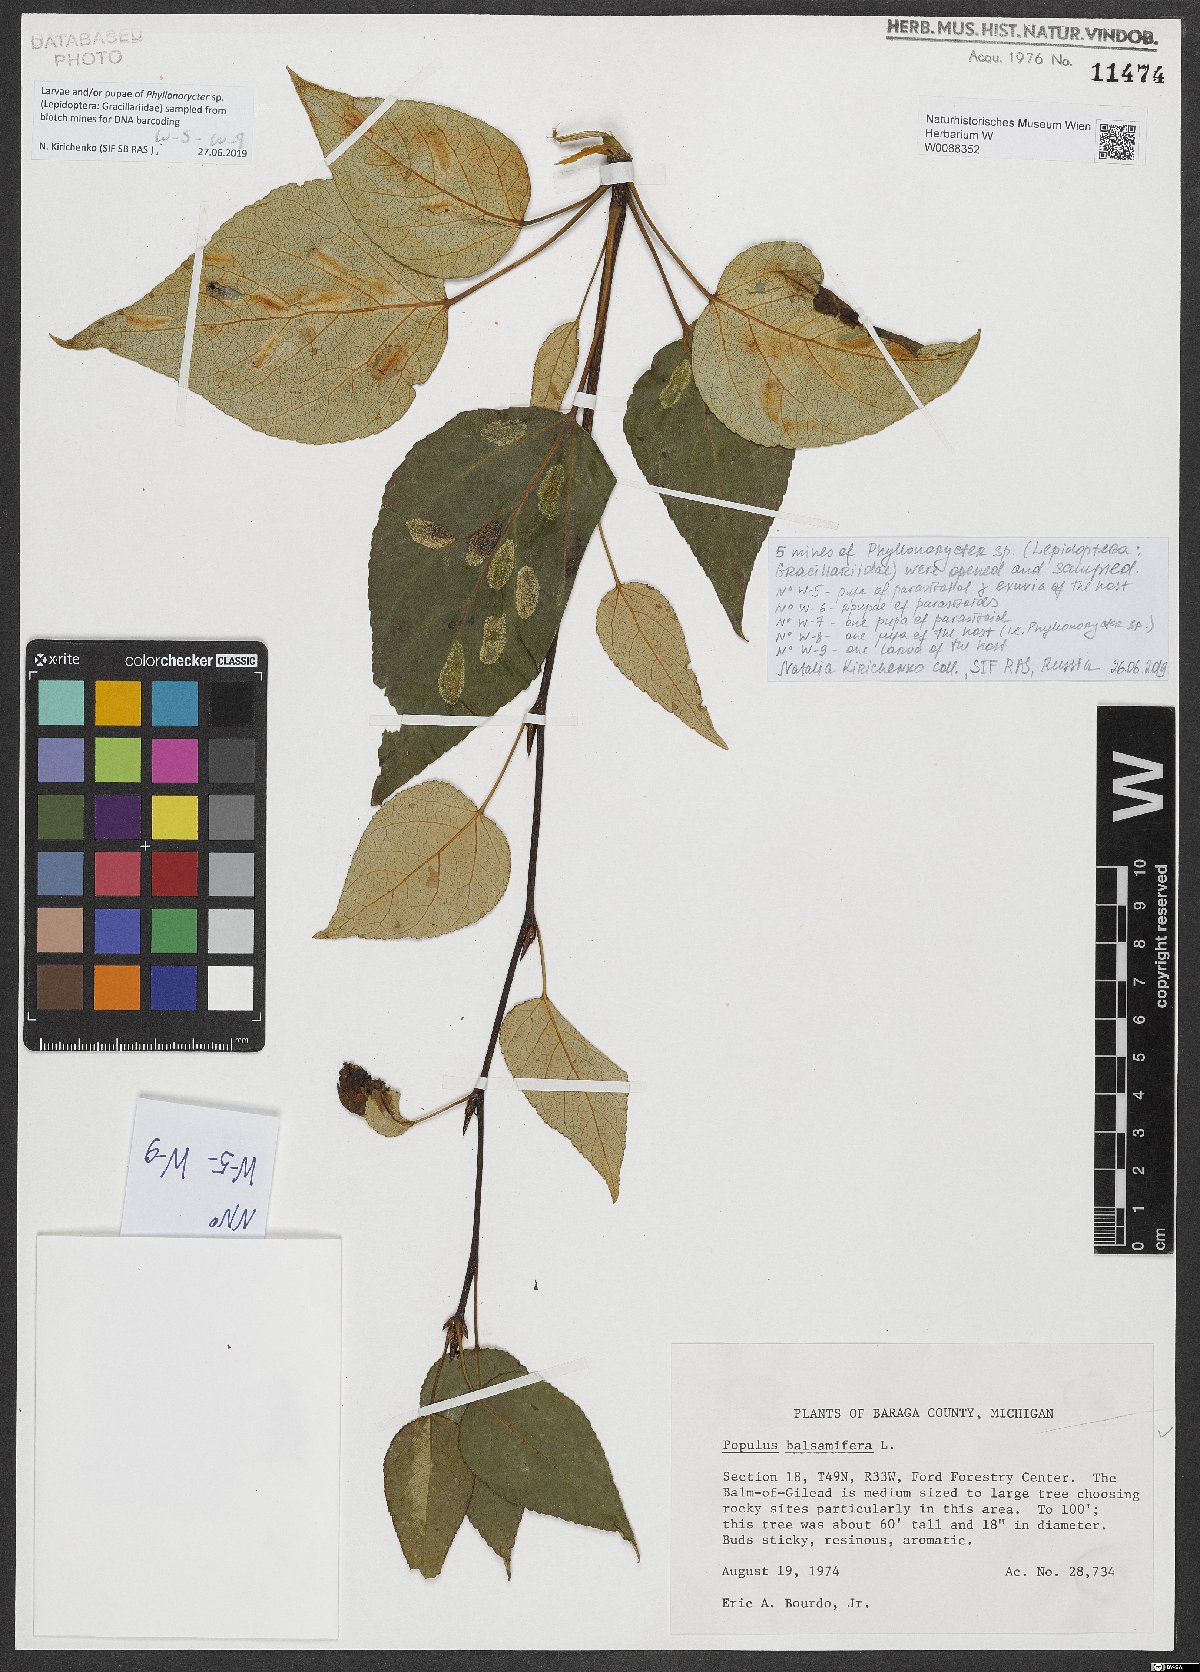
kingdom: Plantae
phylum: Tracheophyta
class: Magnoliopsida
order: Malpighiales
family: Salicaceae
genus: Populus
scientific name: Populus balsamifera
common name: Balsam poplar
